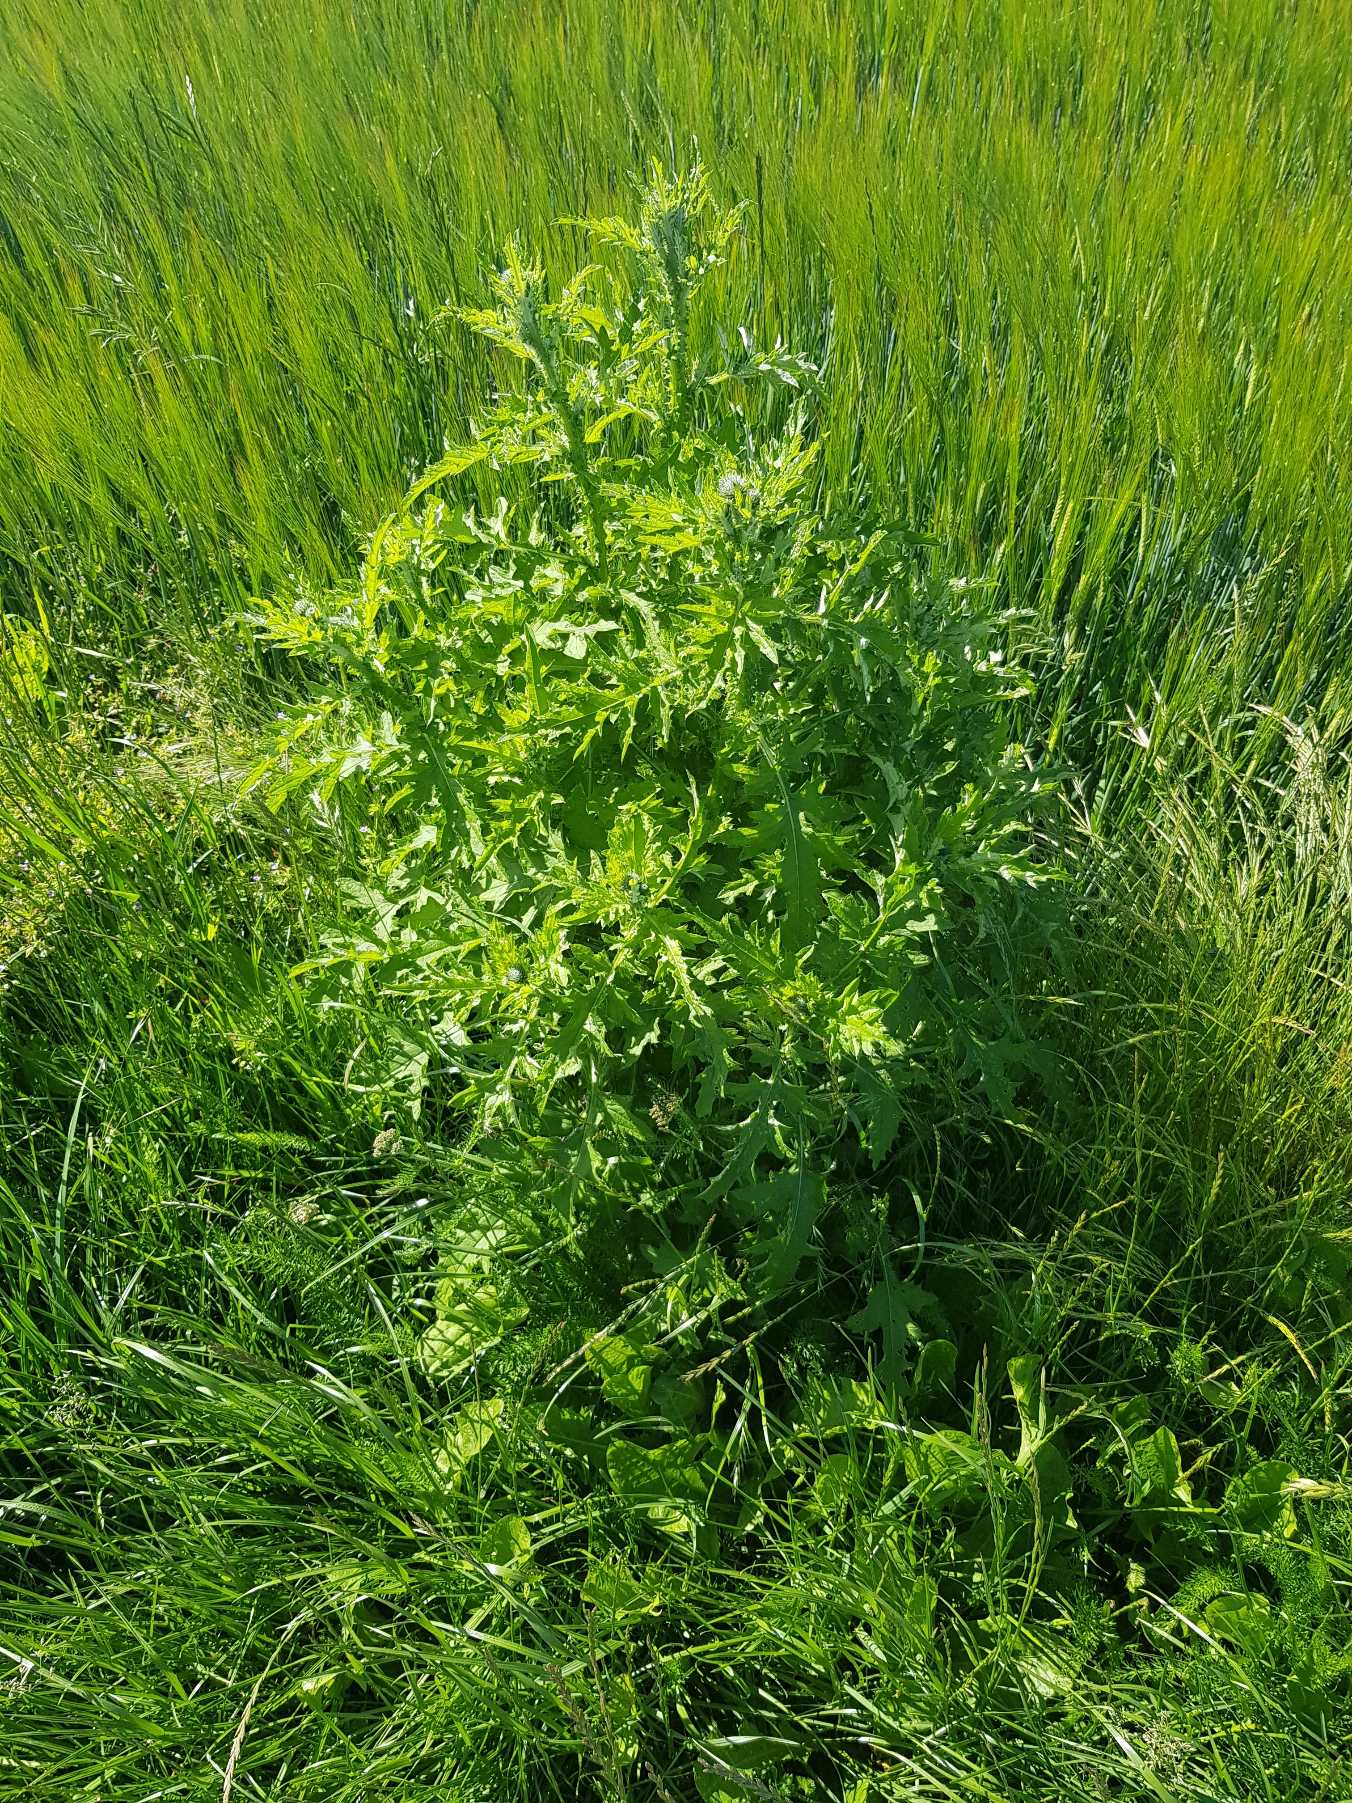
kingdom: Plantae
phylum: Tracheophyta
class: Magnoliopsida
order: Asterales
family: Asteraceae
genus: Carduus
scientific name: Carduus crispus
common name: Kruset tidsel
